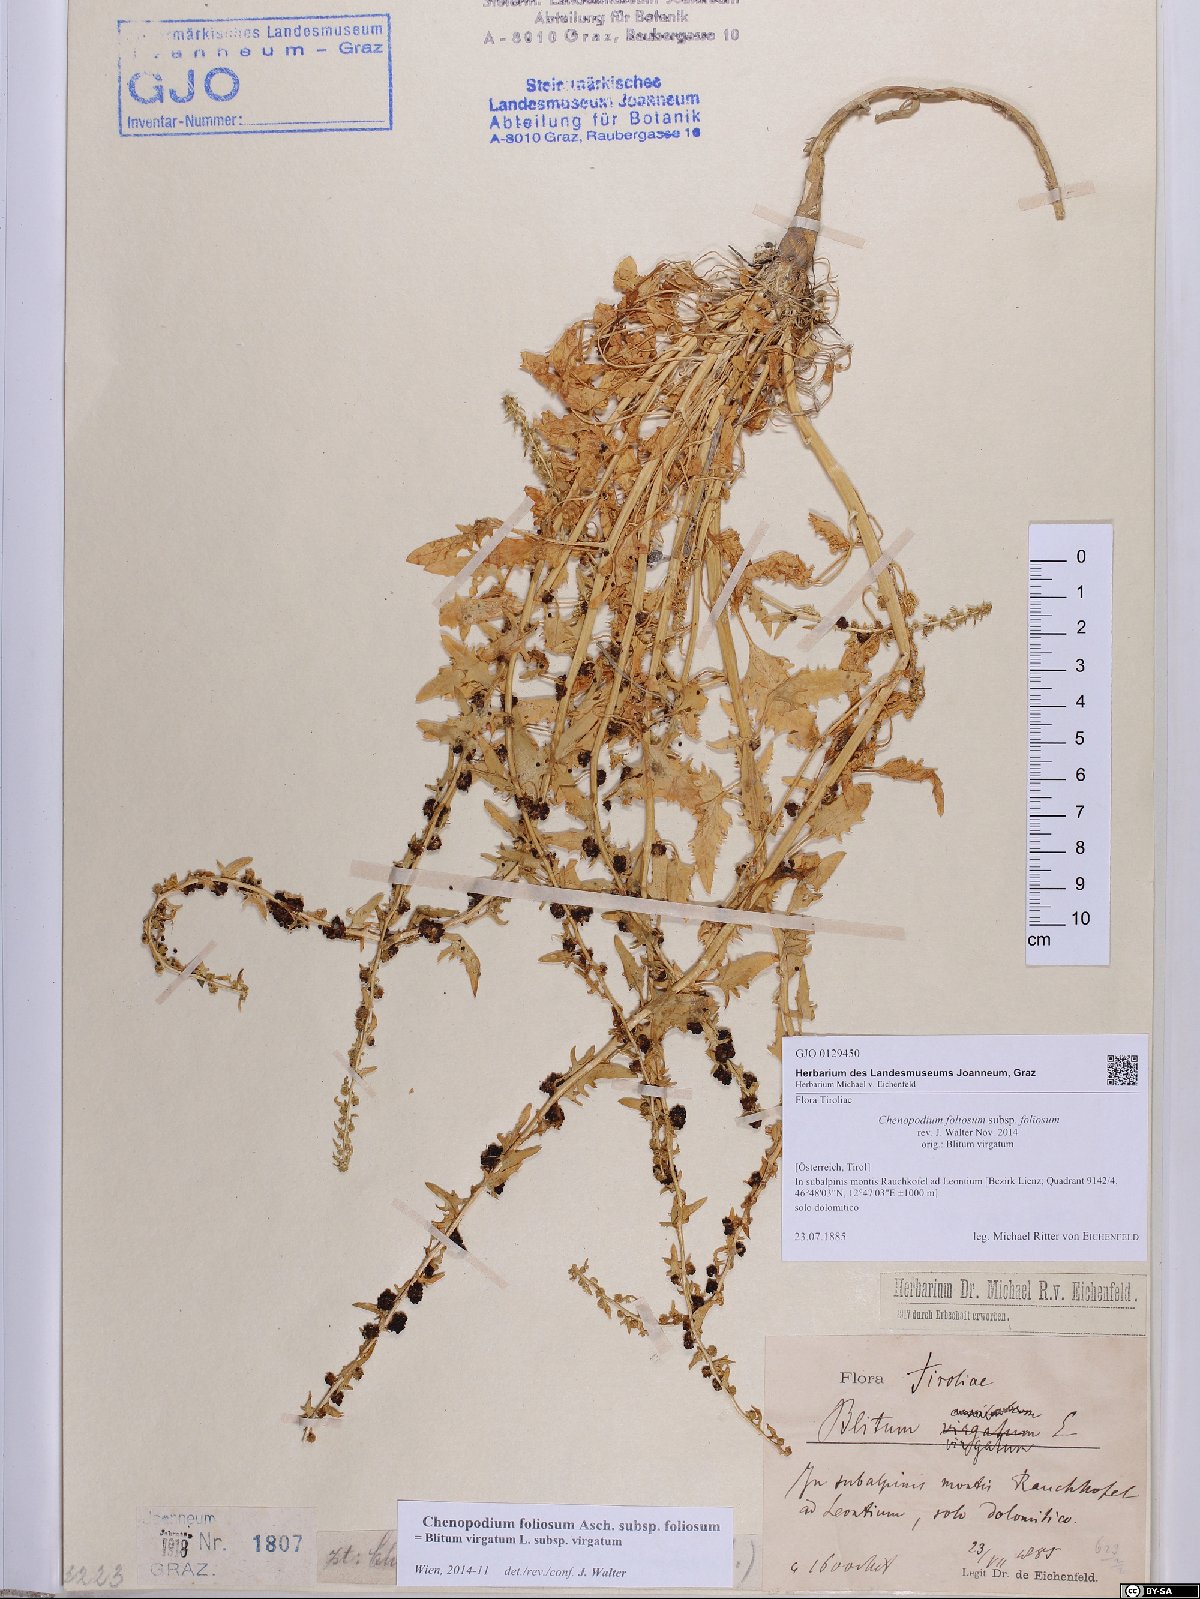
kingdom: Plantae
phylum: Tracheophyta
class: Magnoliopsida
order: Caryophyllales
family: Amaranthaceae
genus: Blitum
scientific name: Blitum virgatum
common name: Strawberry goosefoot
